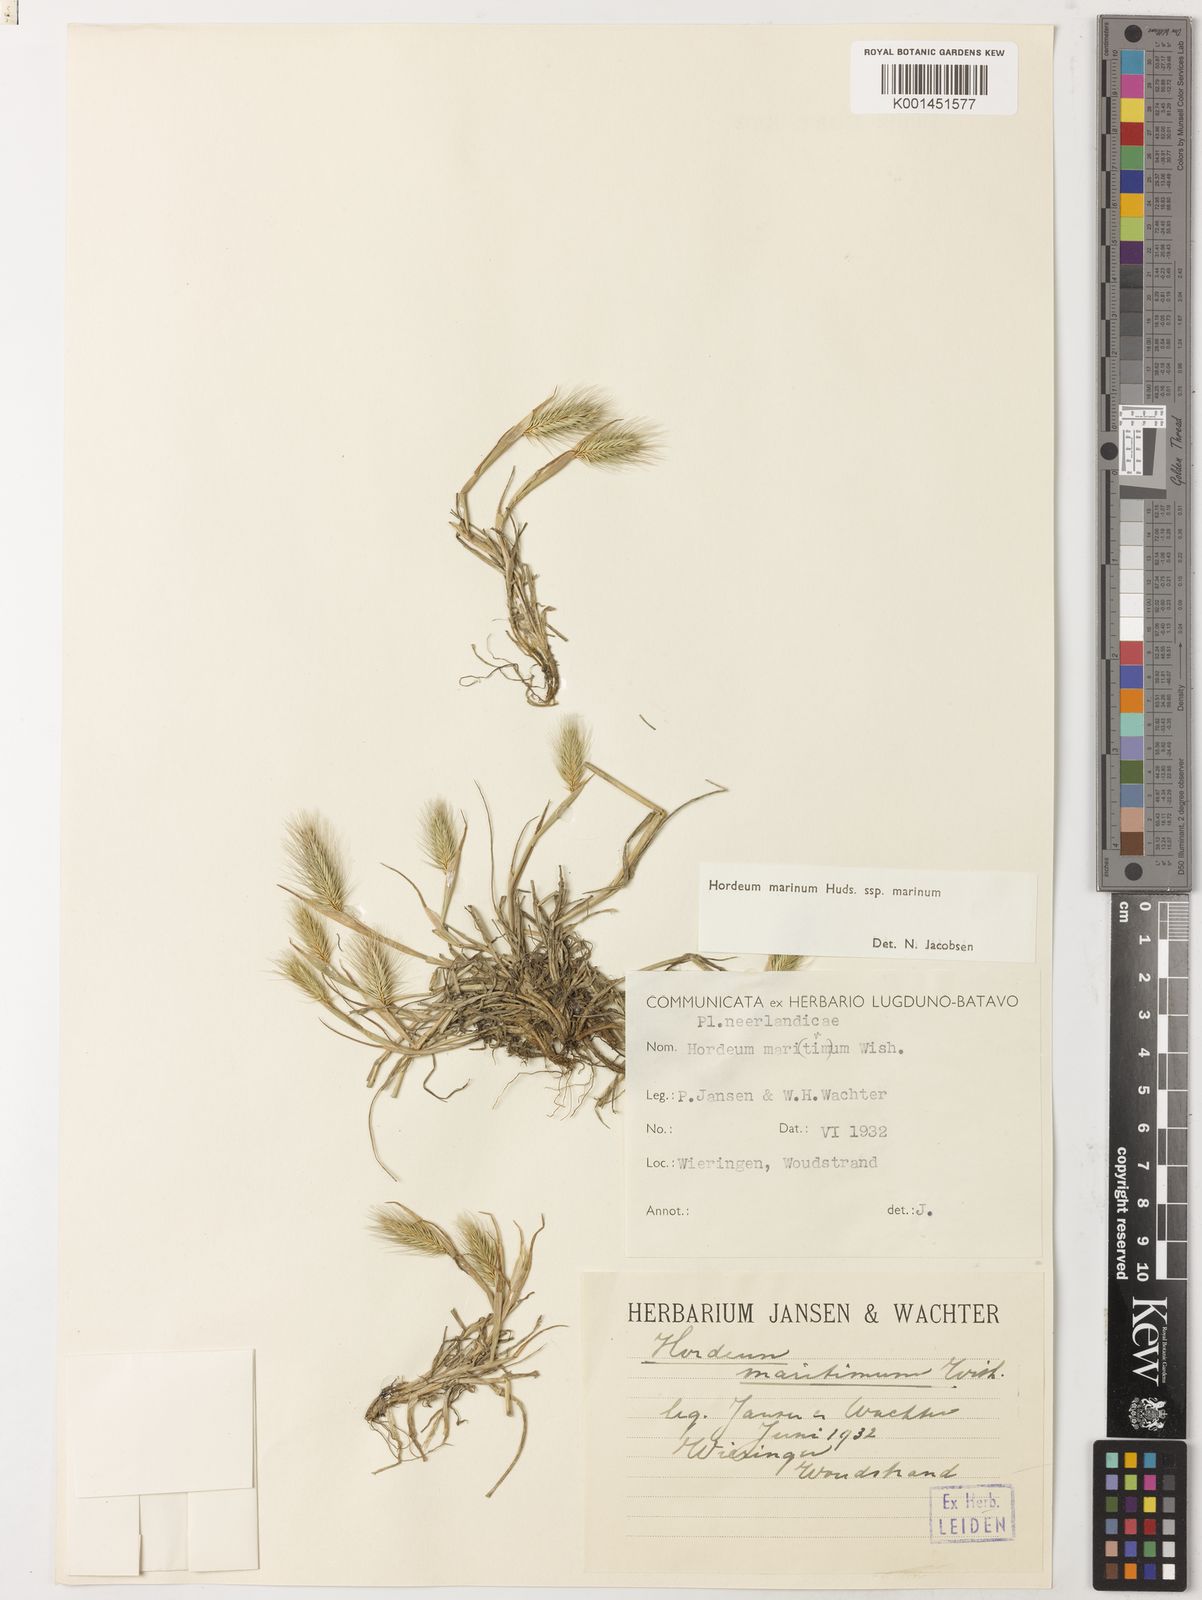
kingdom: Plantae
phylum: Tracheophyta
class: Liliopsida
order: Poales
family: Poaceae
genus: Hordeum
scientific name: Hordeum marinum
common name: Sea barley
